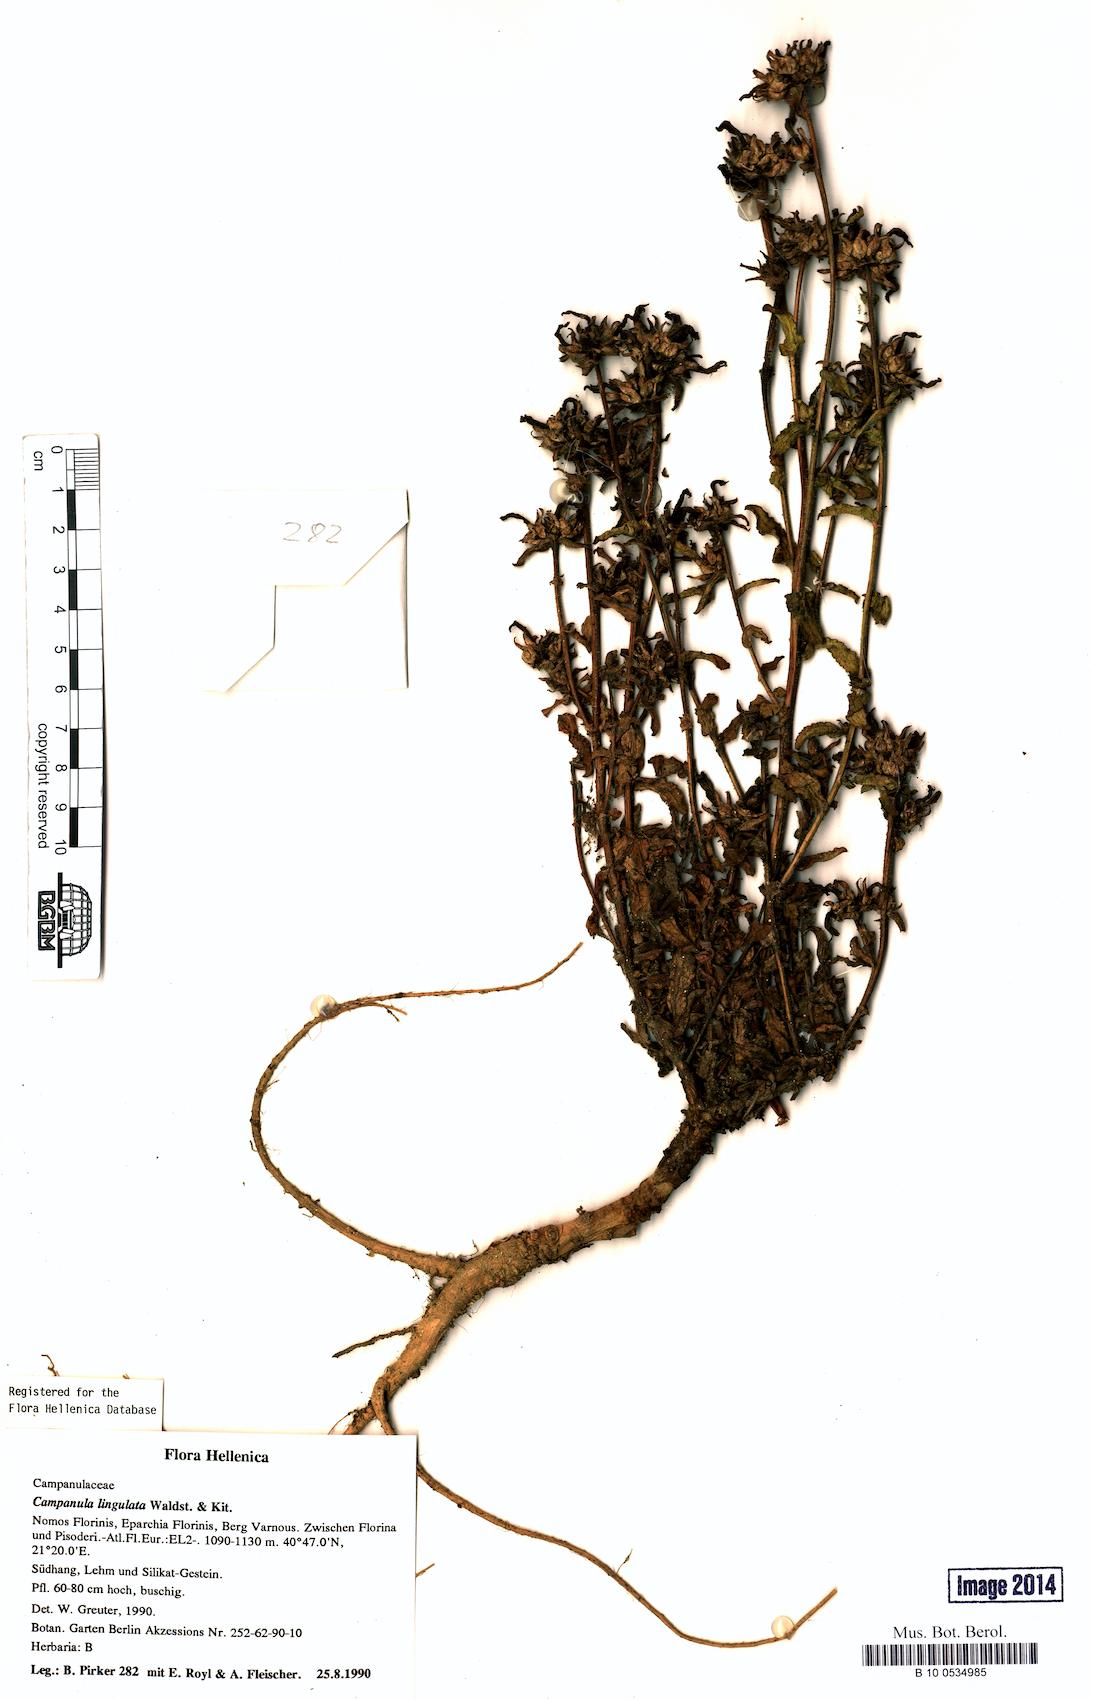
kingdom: Plantae
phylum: Tracheophyta
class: Magnoliopsida
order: Asterales
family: Campanulaceae
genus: Campanula
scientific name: Campanula lingulata
